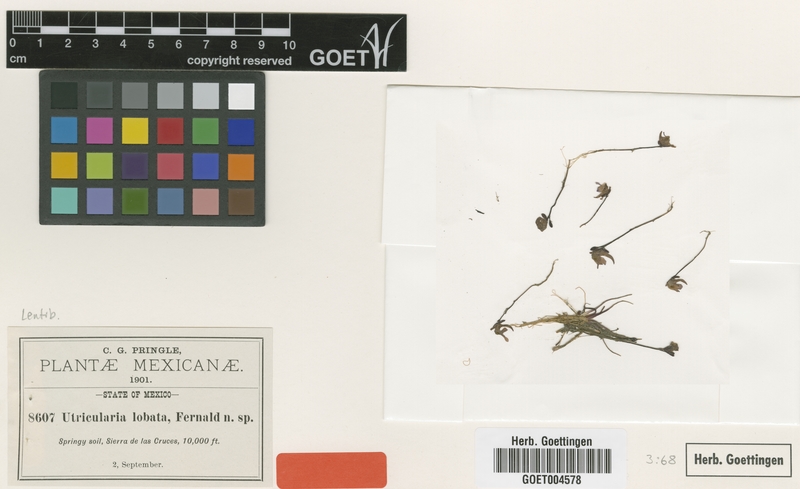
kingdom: Plantae
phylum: Tracheophyta
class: Magnoliopsida
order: Lamiales
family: Lentibulariaceae
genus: Utricularia
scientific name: Utricularia livida
